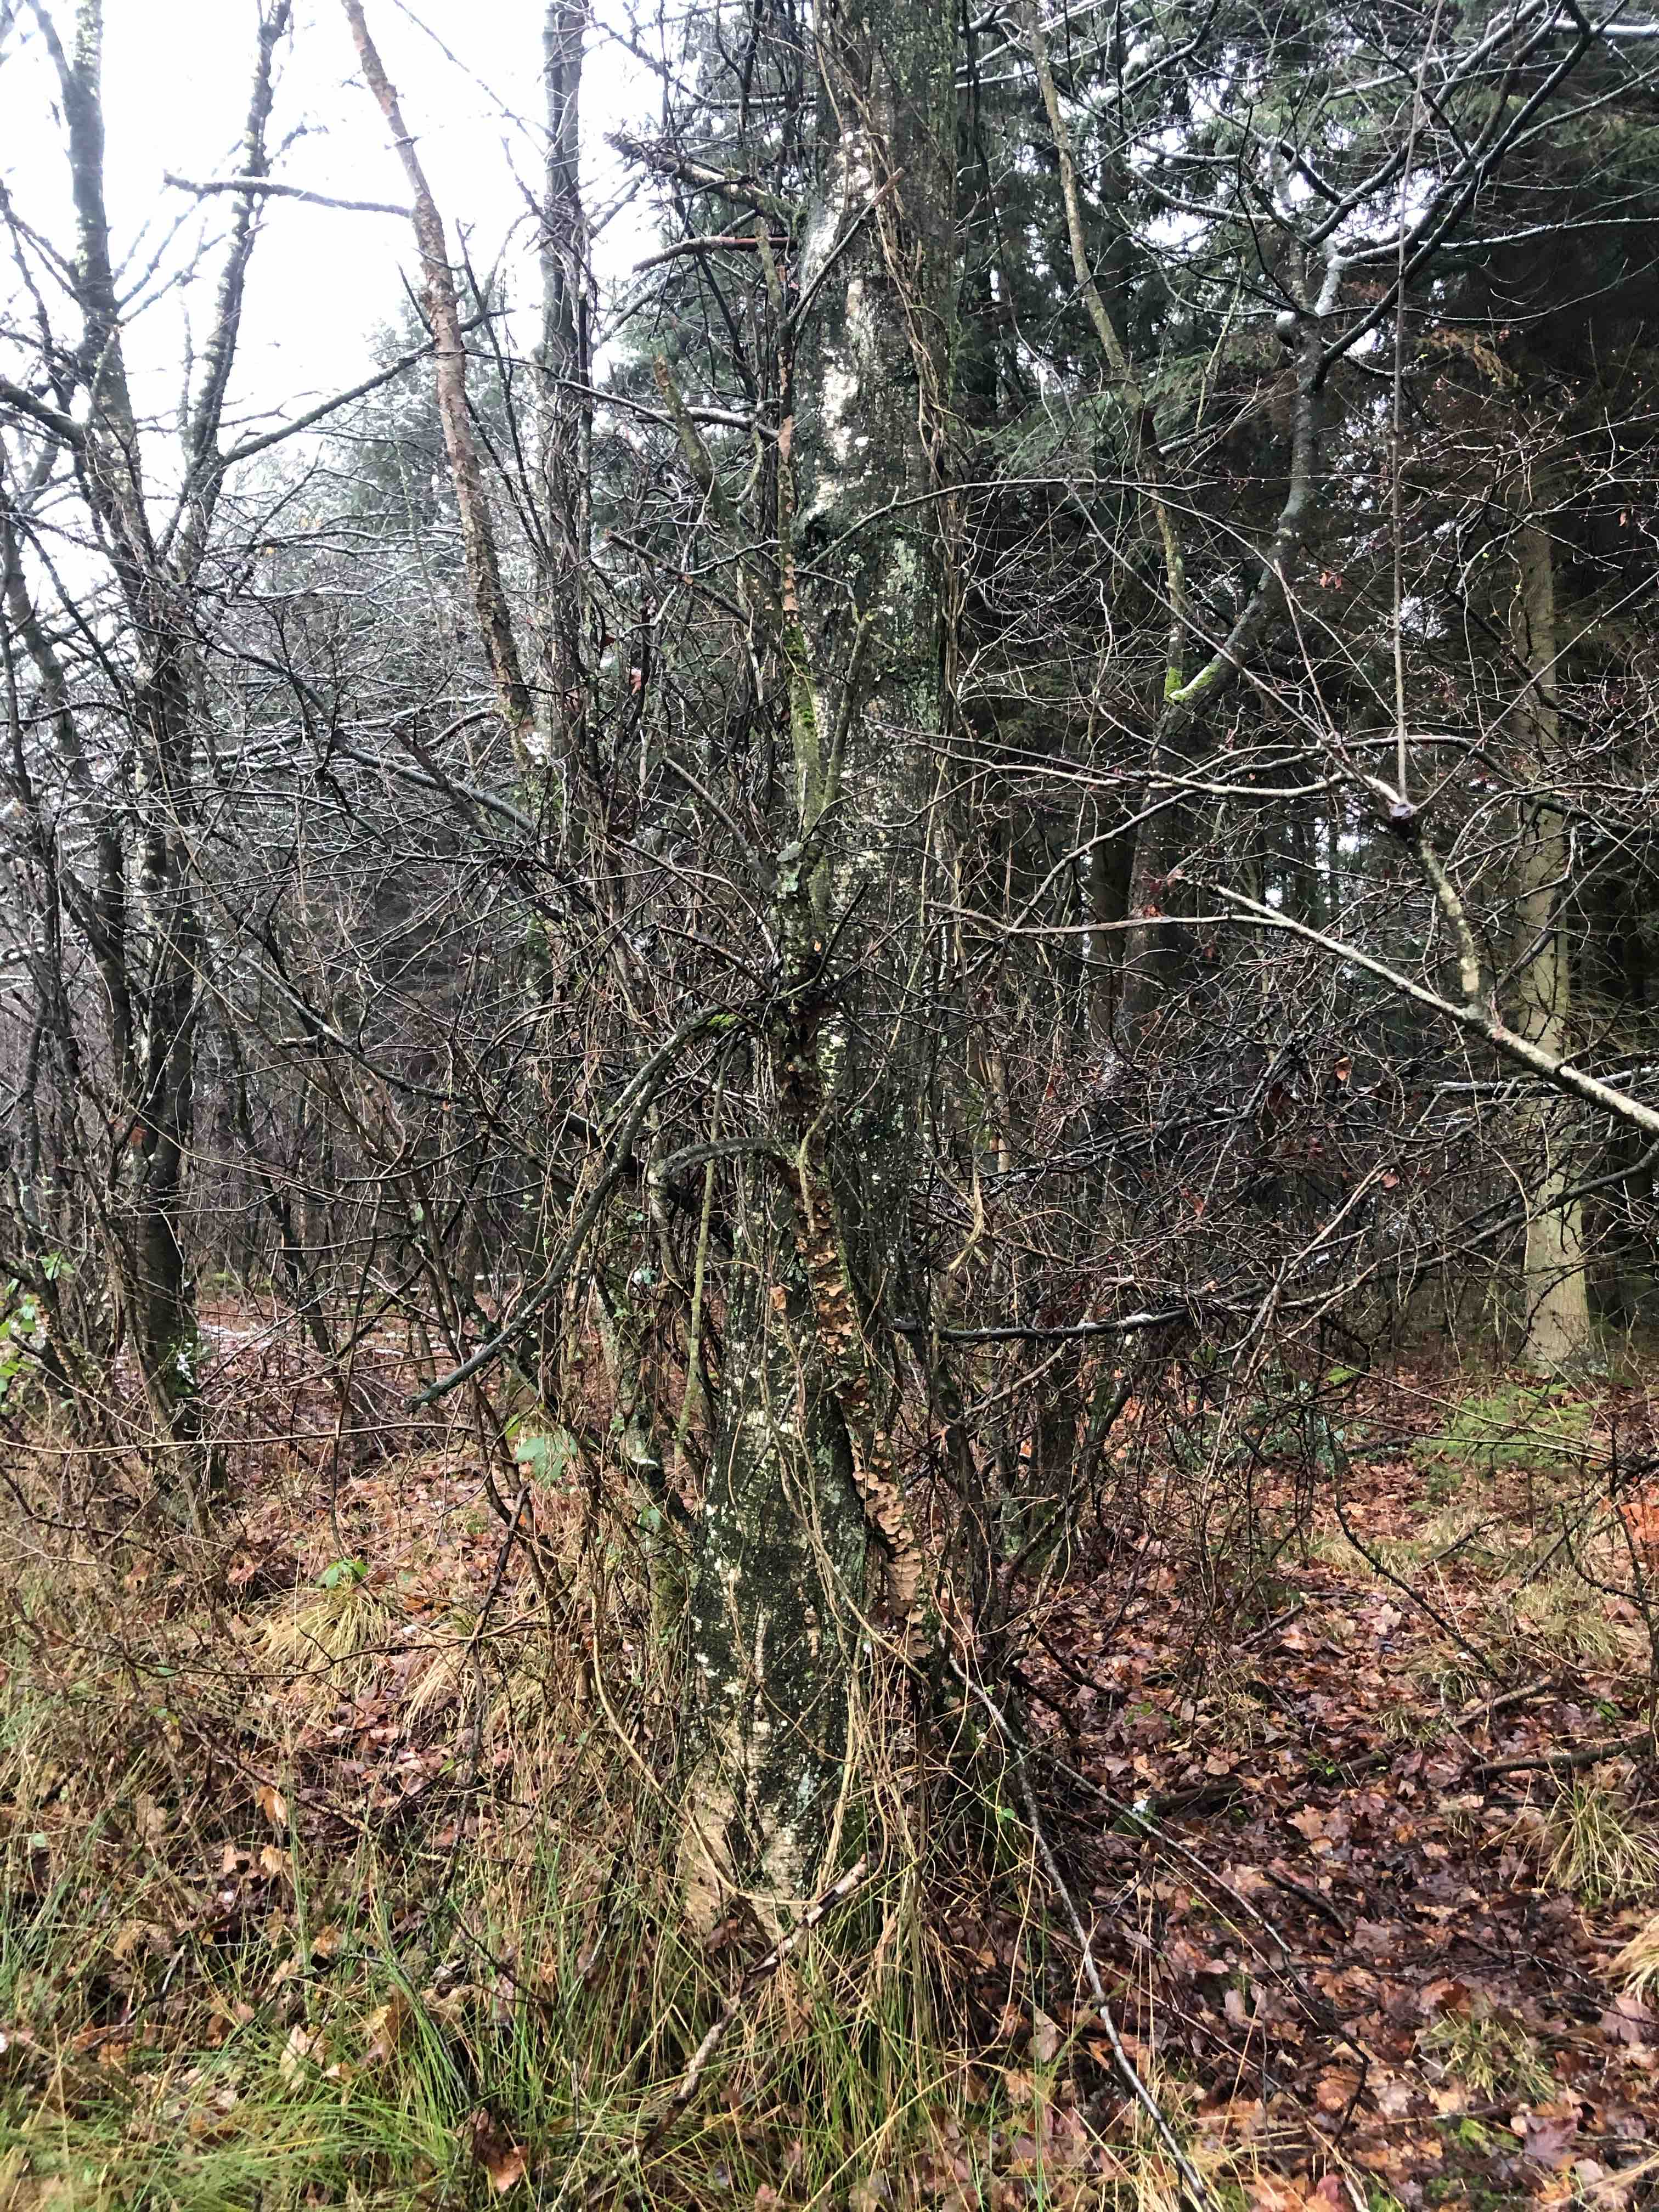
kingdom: Fungi
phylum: Basidiomycota
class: Agaricomycetes
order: Russulales
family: Stereaceae
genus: Stereum
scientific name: Stereum rugosum
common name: rynket lædersvamp
